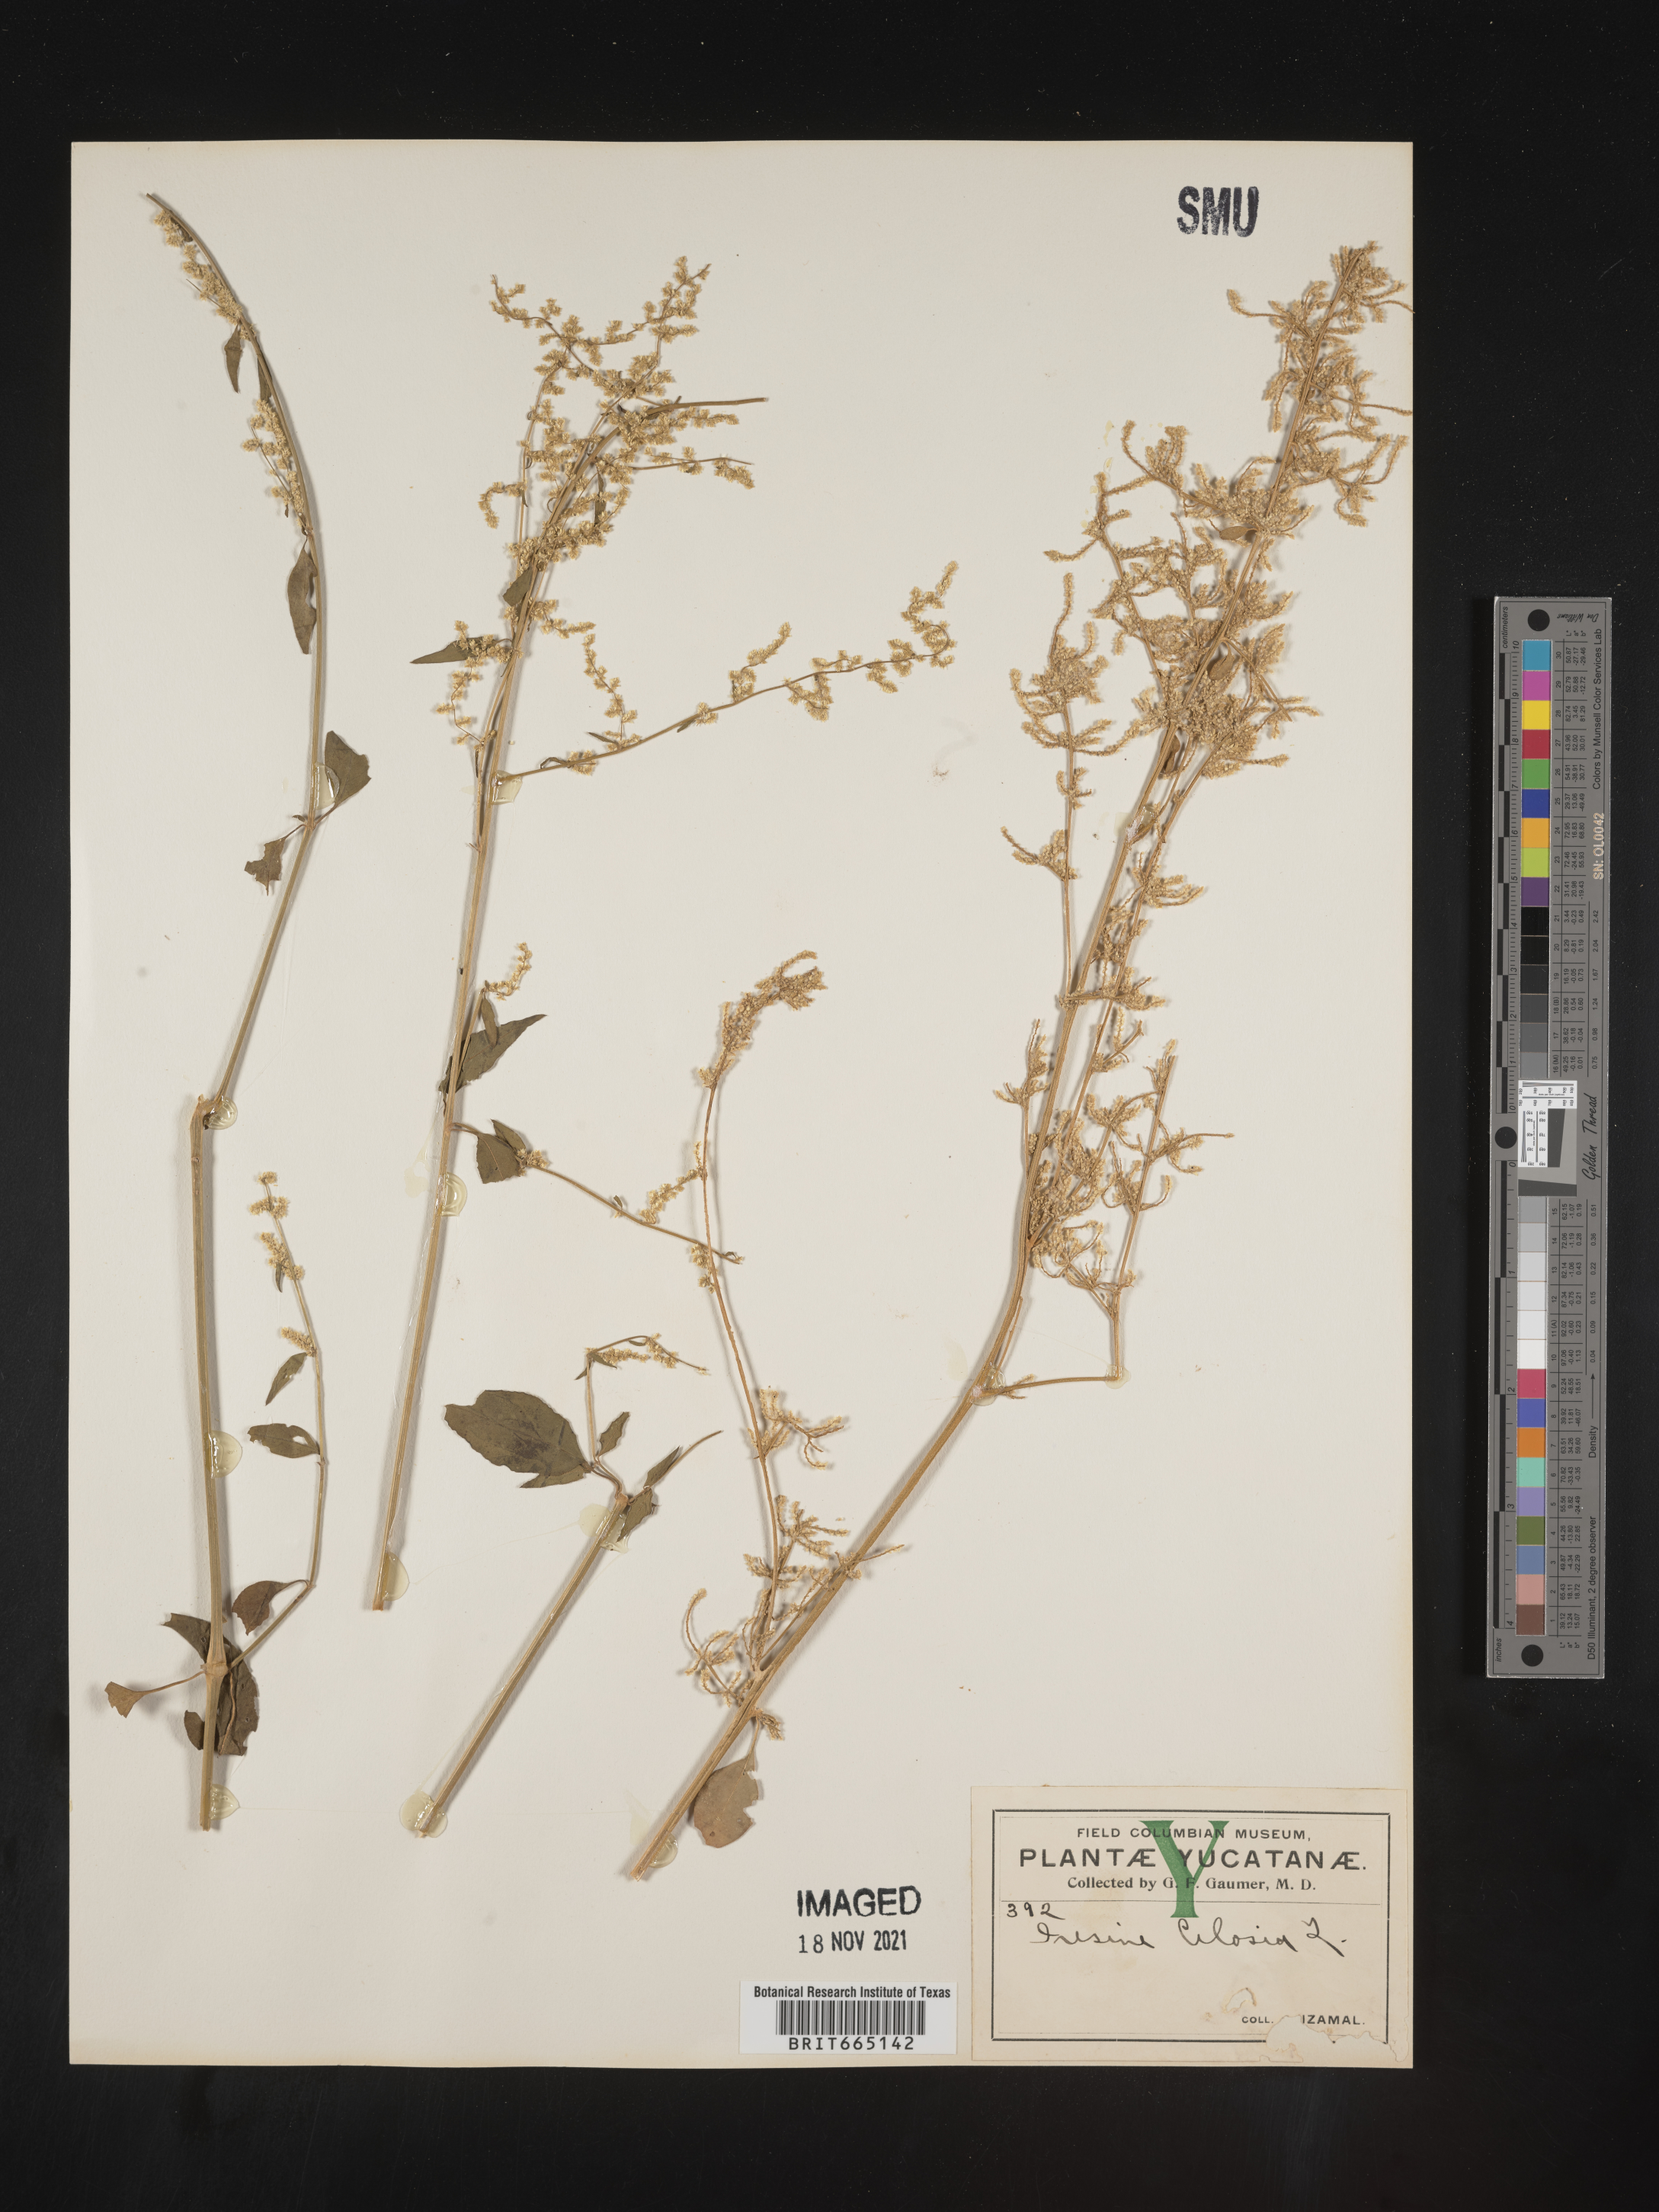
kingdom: Plantae
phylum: Tracheophyta
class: Magnoliopsida
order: Caryophyllales
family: Amaranthaceae
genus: Iresine
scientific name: Iresine
